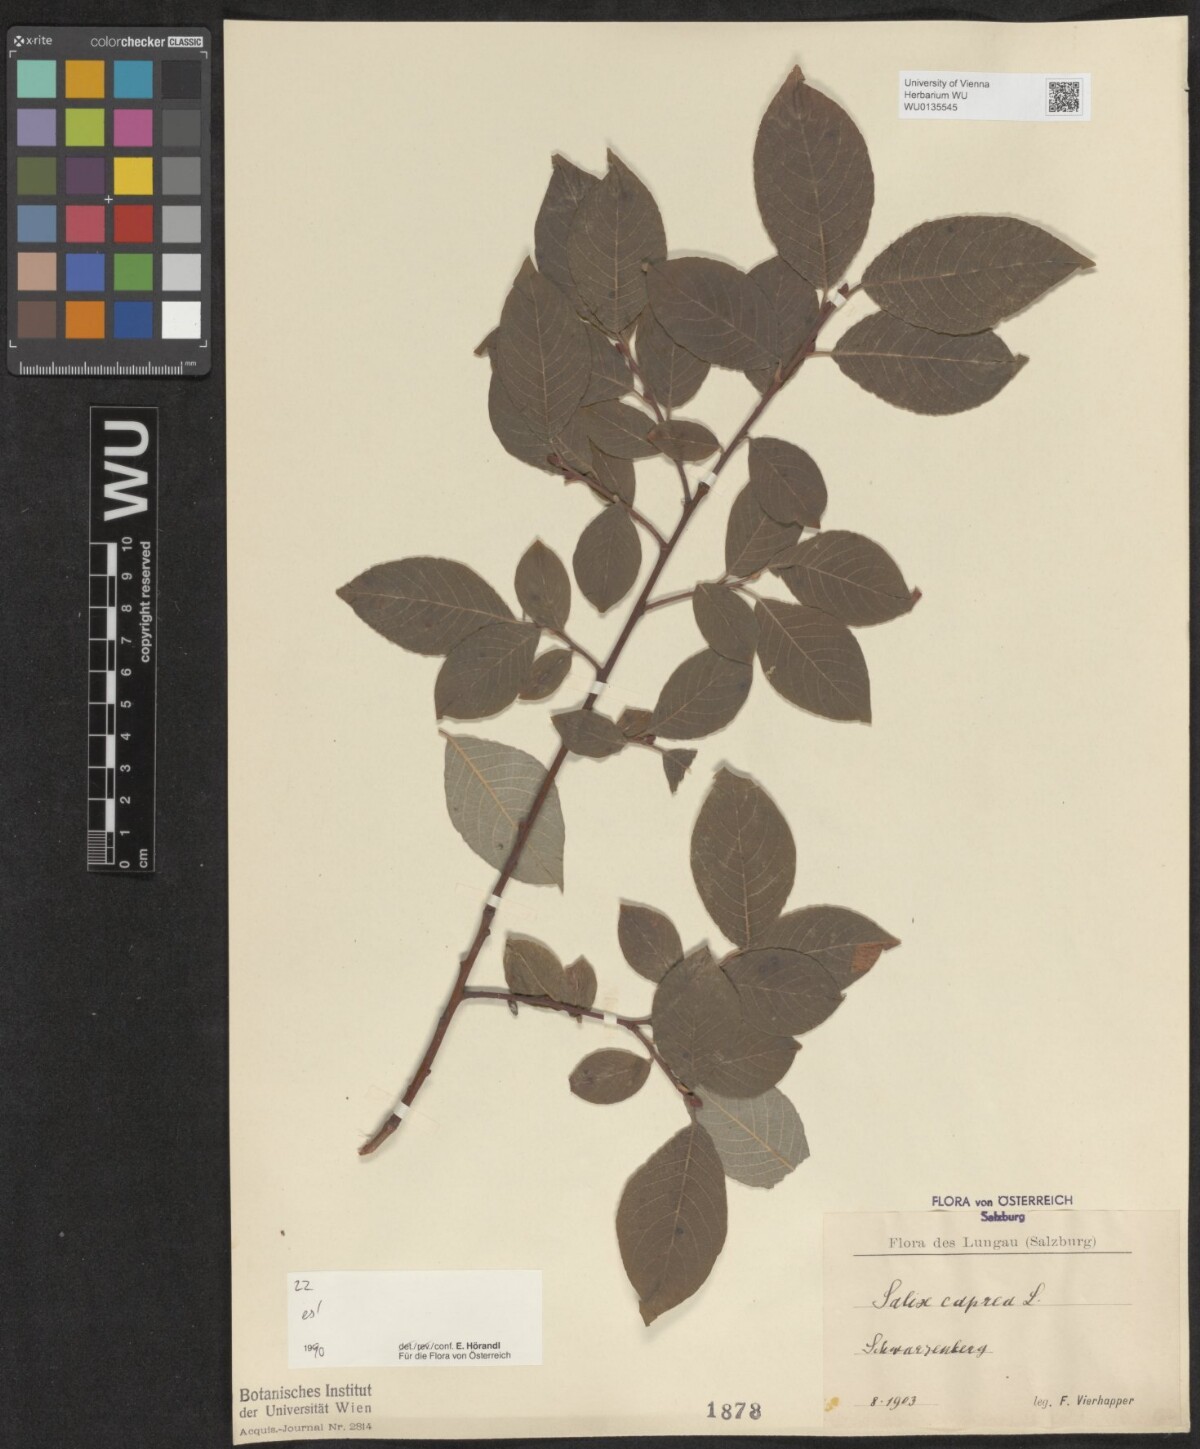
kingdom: Plantae
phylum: Tracheophyta
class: Magnoliopsida
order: Malpighiales
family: Salicaceae
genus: Salix
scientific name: Salix caprea
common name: Goat willow
